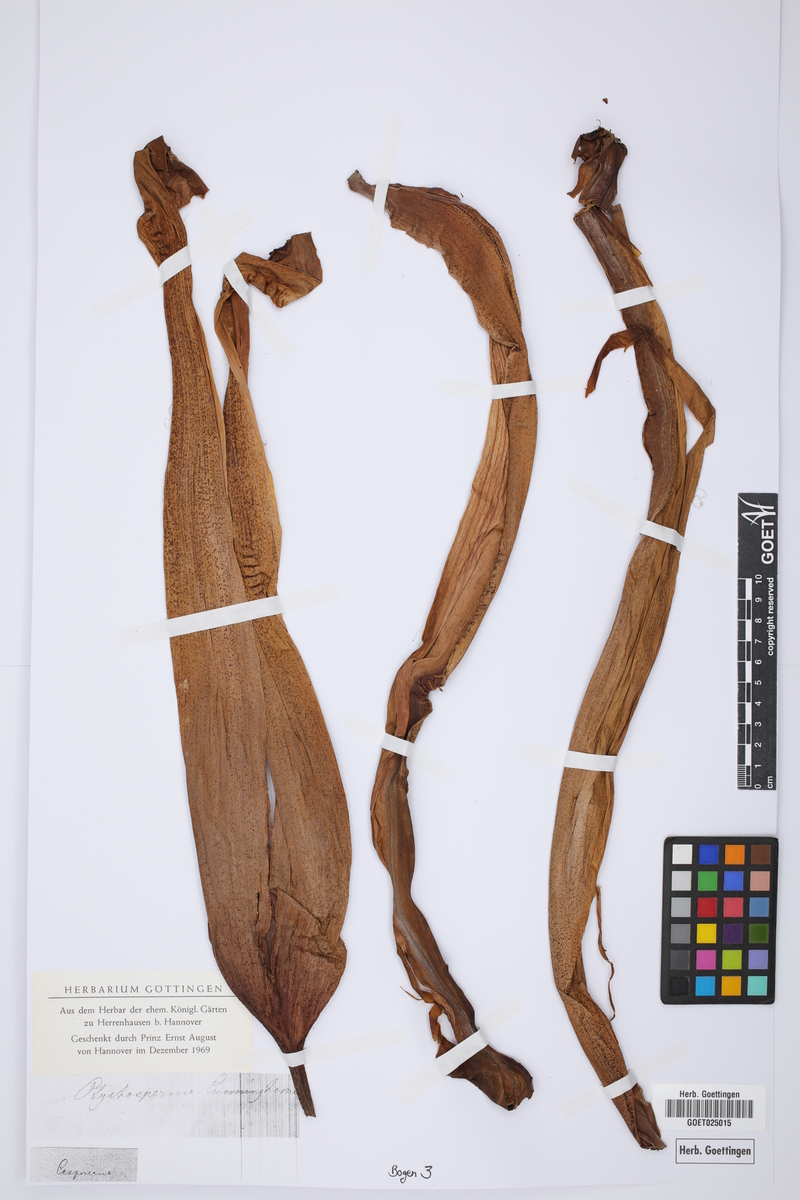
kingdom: Plantae
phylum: Tracheophyta
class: Liliopsida
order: Arecales
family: Arecaceae
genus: Archontophoenix
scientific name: Archontophoenix cunninghamiana
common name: Piccabeen bangalow palm
